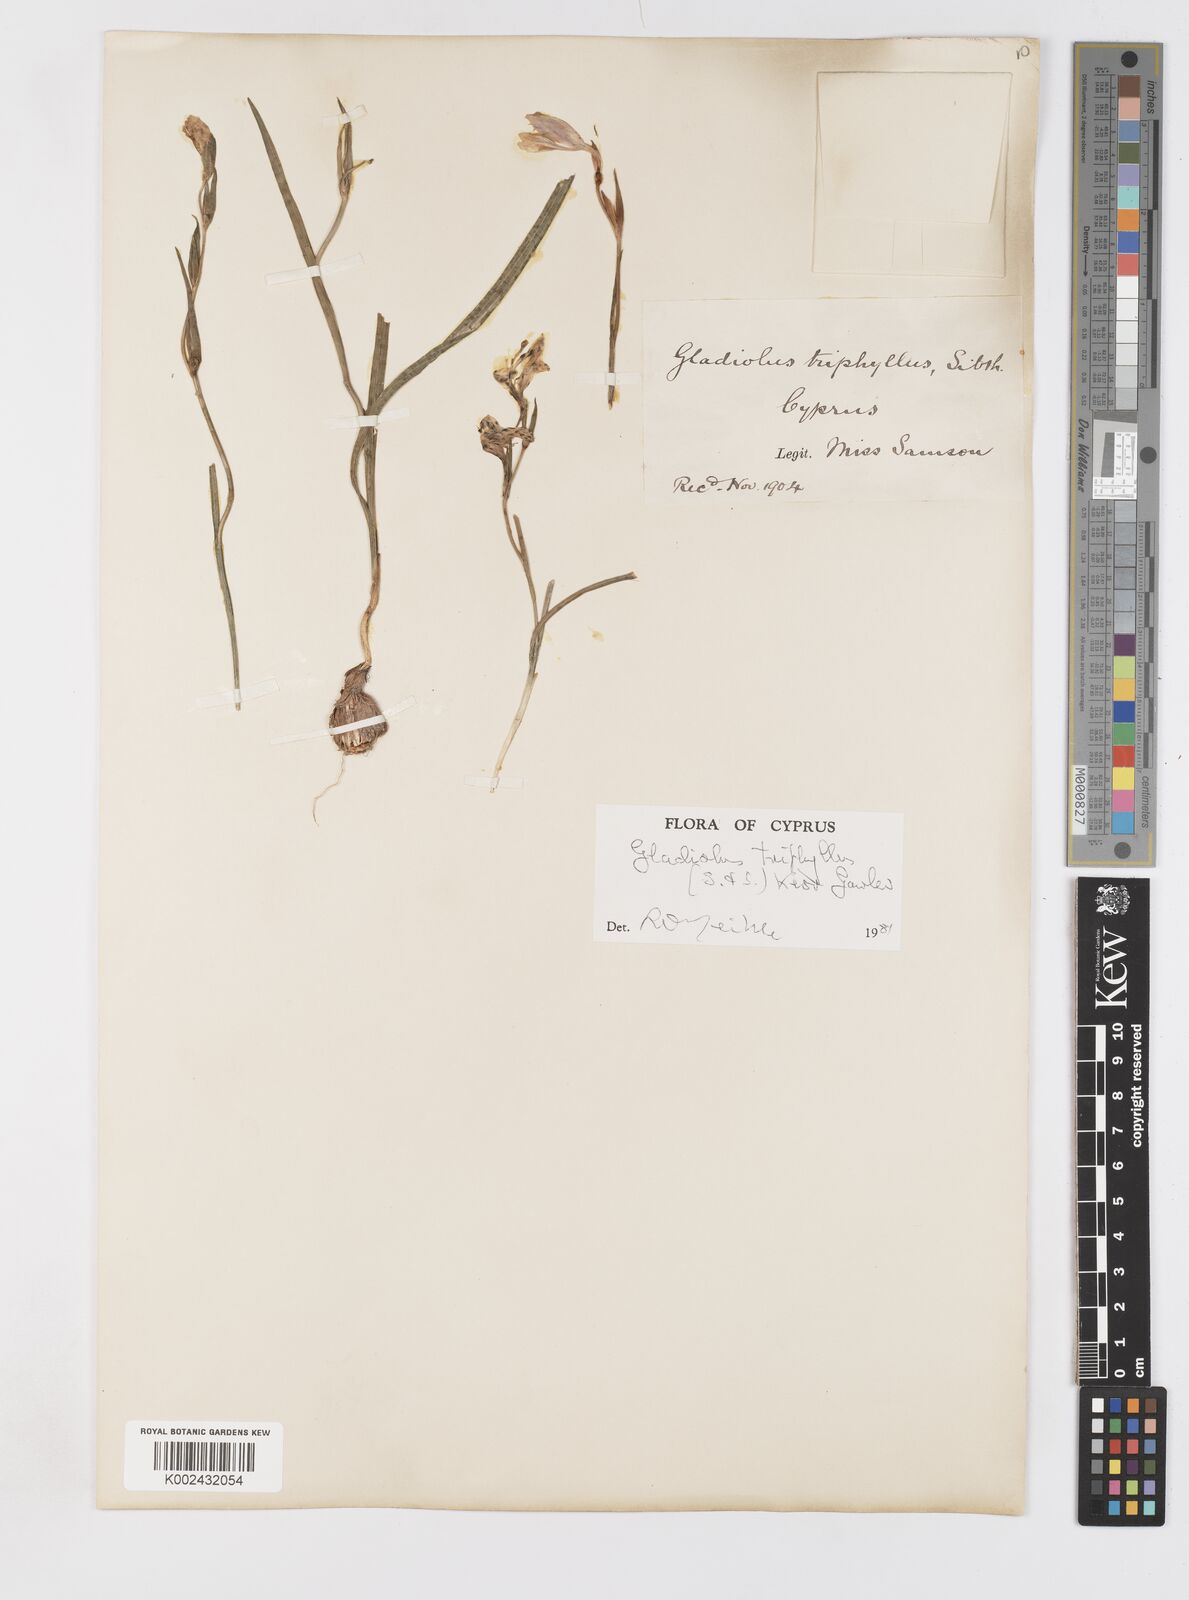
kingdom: Plantae
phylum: Tracheophyta
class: Liliopsida
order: Asparagales
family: Iridaceae
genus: Gladiolus
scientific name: Gladiolus triphyllus
